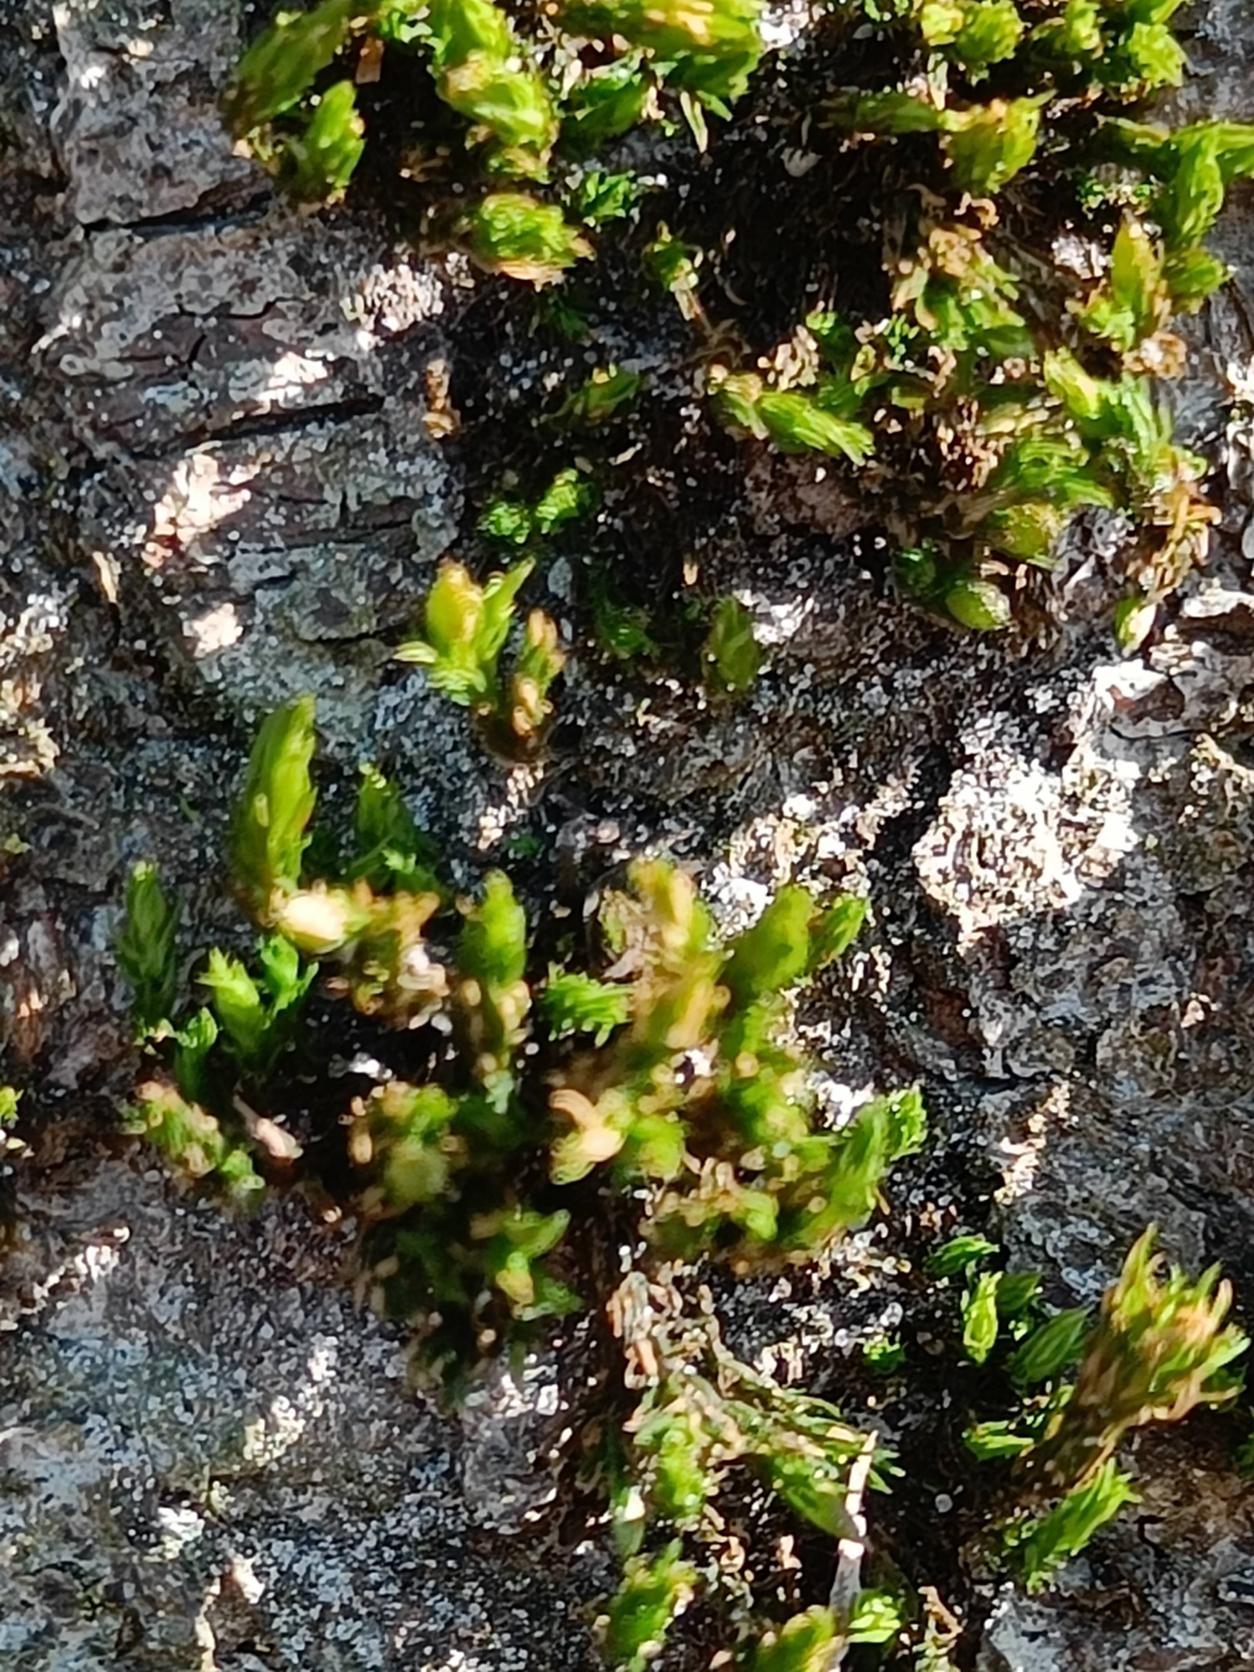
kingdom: Plantae
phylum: Bryophyta
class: Bryopsida
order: Orthotrichales
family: Orthotrichaceae
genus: Orthotrichum
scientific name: Orthotrichum
